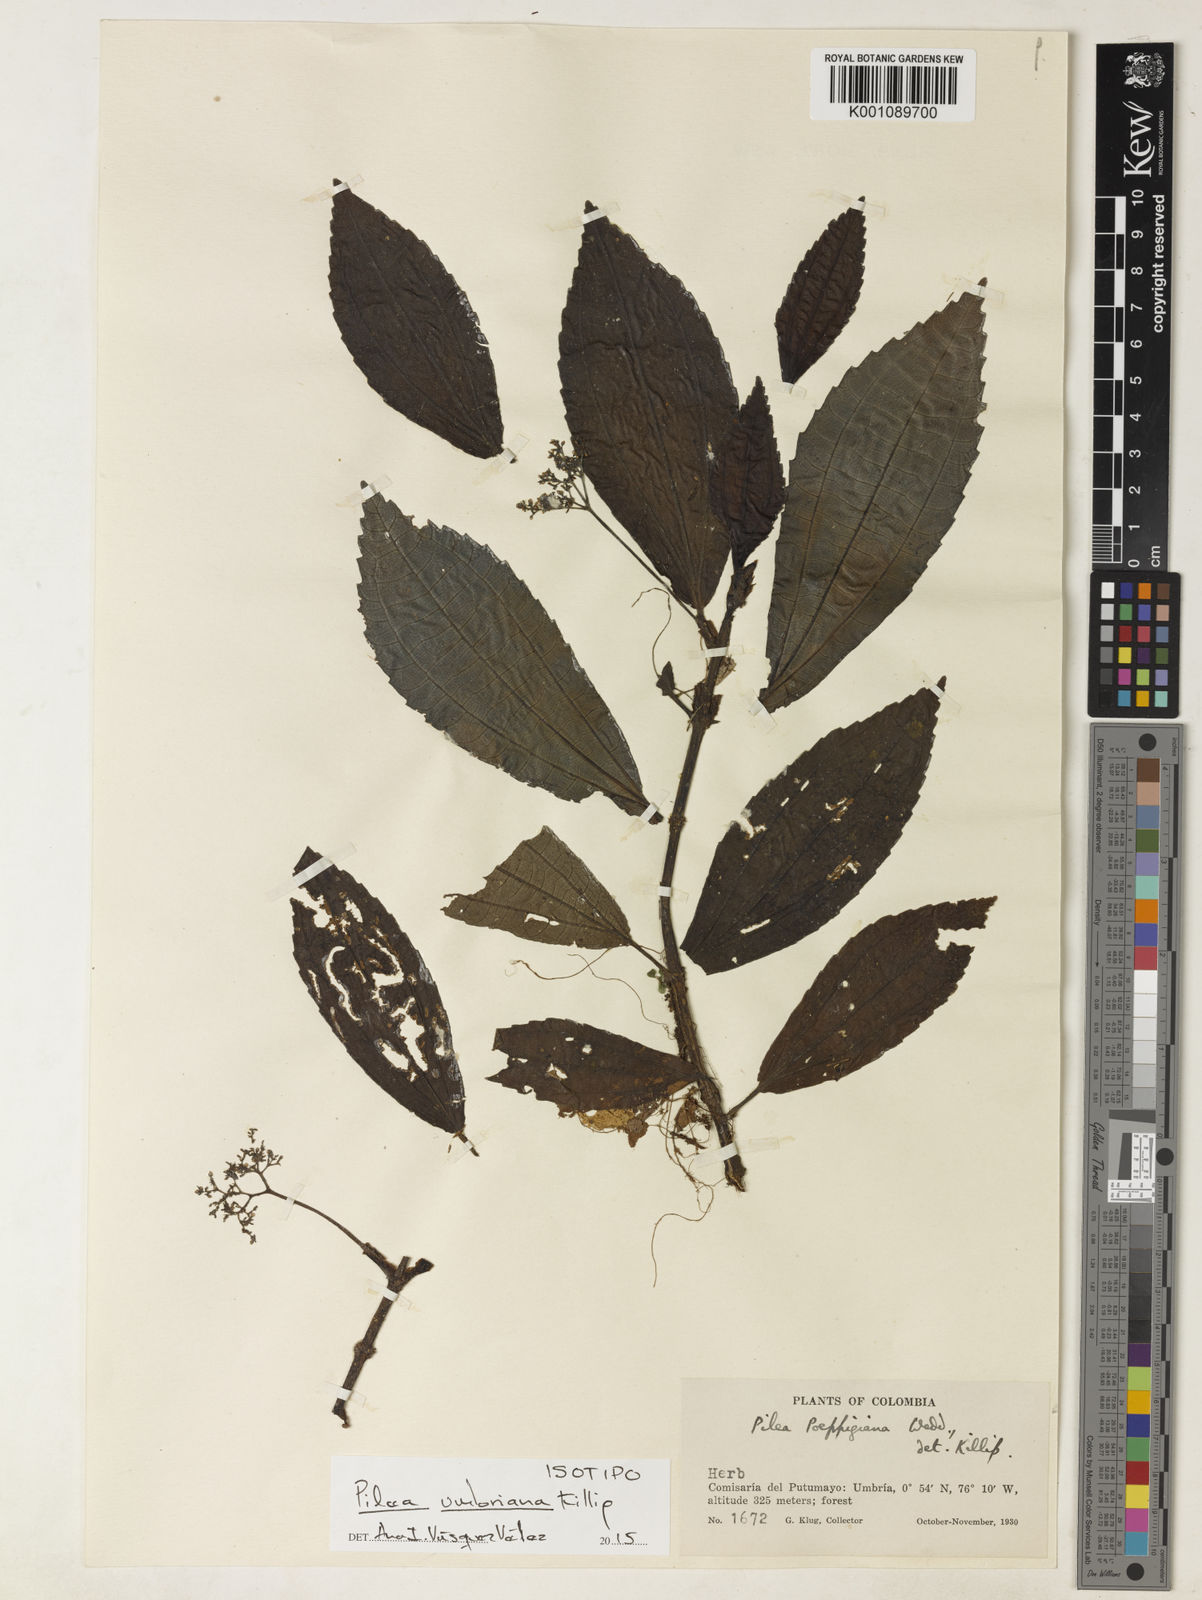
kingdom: Plantae
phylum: Tracheophyta
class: Magnoliopsida
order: Rosales
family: Urticaceae
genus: Pilea
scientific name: Pilea umbriana
